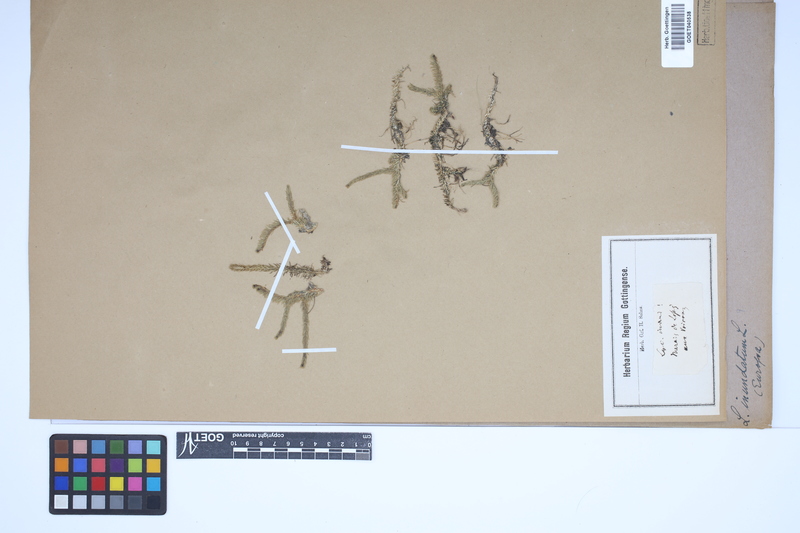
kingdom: Plantae
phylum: Tracheophyta
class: Lycopodiopsida
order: Lycopodiales
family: Lycopodiaceae
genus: Lycopodiella
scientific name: Lycopodiella inundata
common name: Marsh clubmoss
